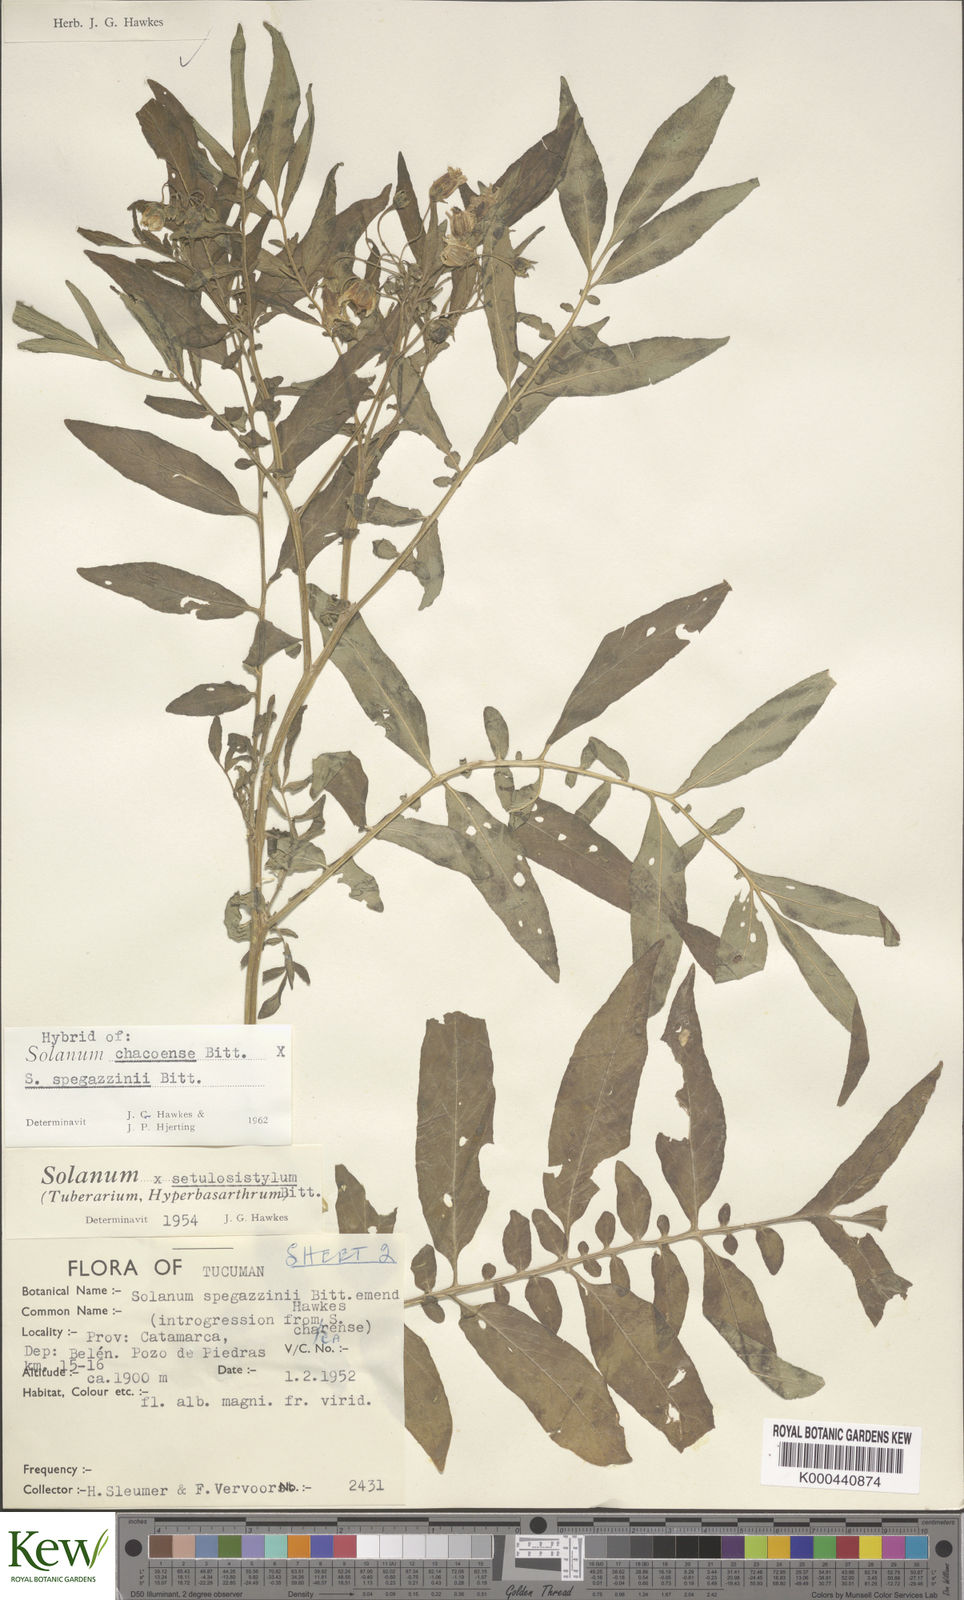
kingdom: Plantae
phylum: Tracheophyta
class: Magnoliopsida
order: Solanales
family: Solanaceae
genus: Solanum
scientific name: Solanum chacoense
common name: Chaco potato
